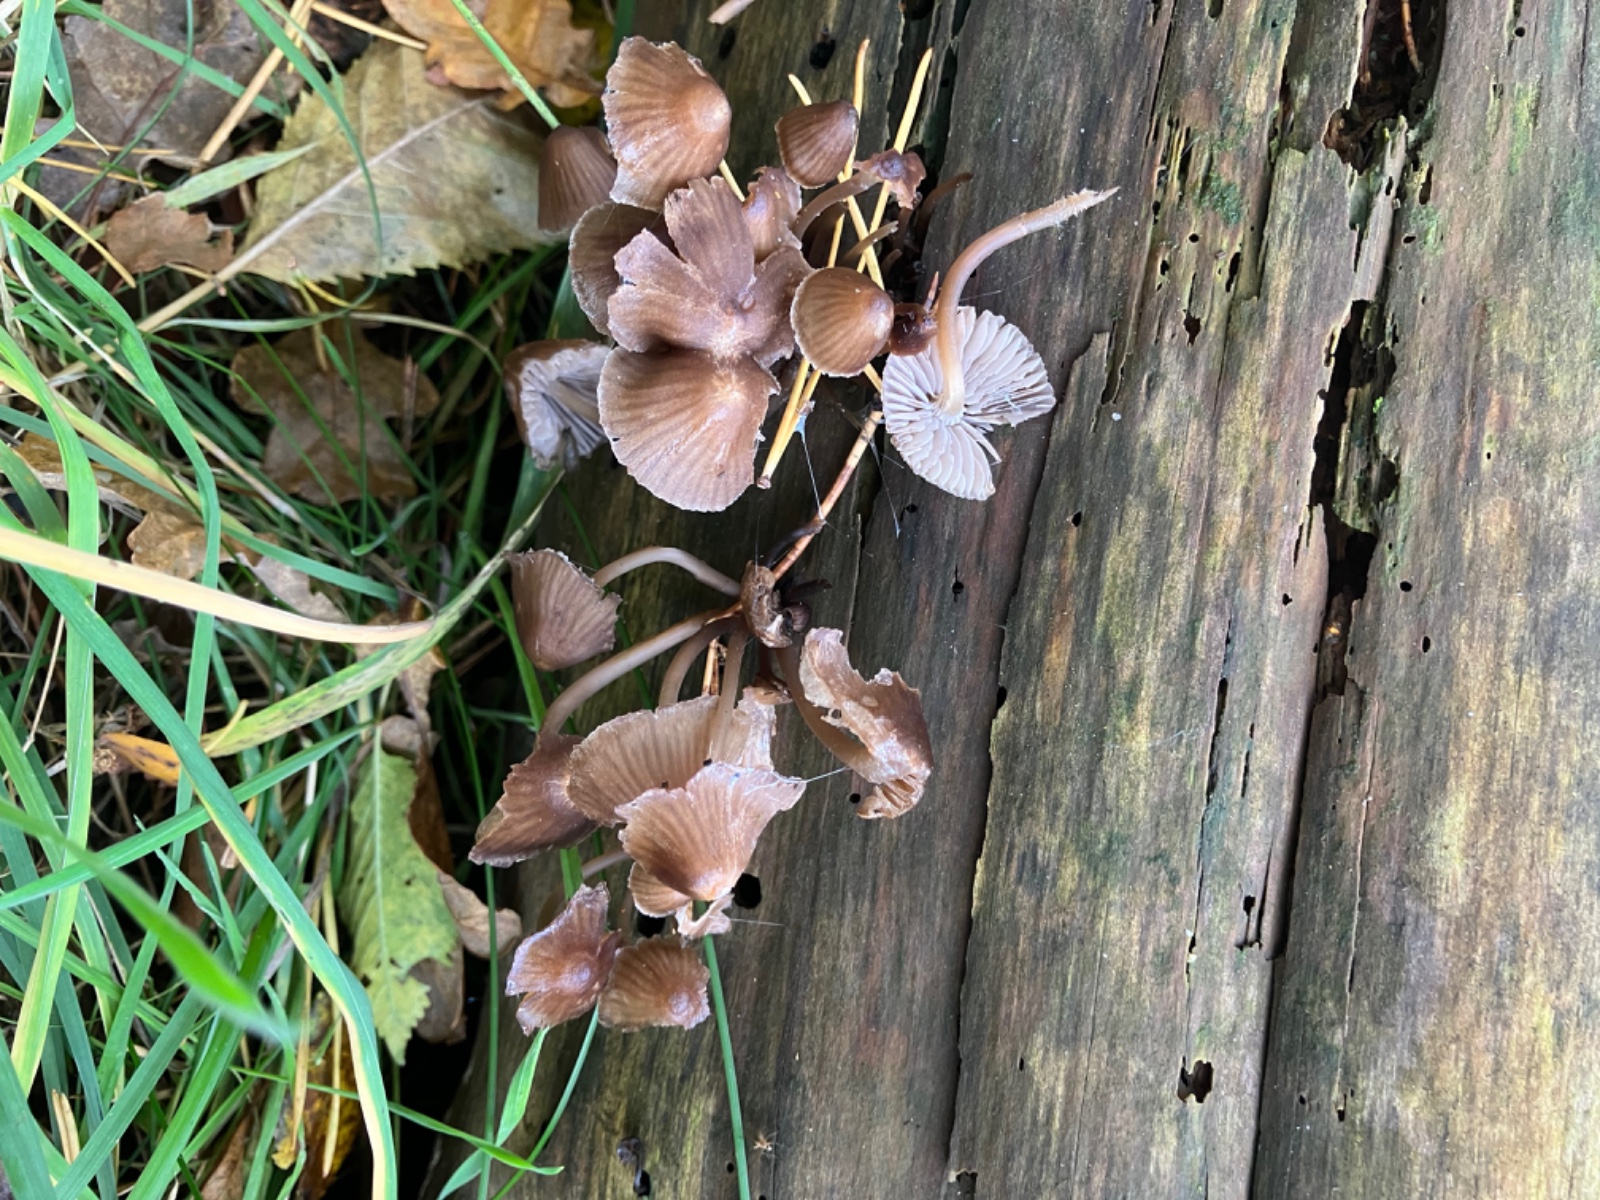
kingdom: Fungi
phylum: Basidiomycota
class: Agaricomycetes
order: Agaricales
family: Mycenaceae
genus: Mycena
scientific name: Mycena stipata
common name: stinkende huesvamp
